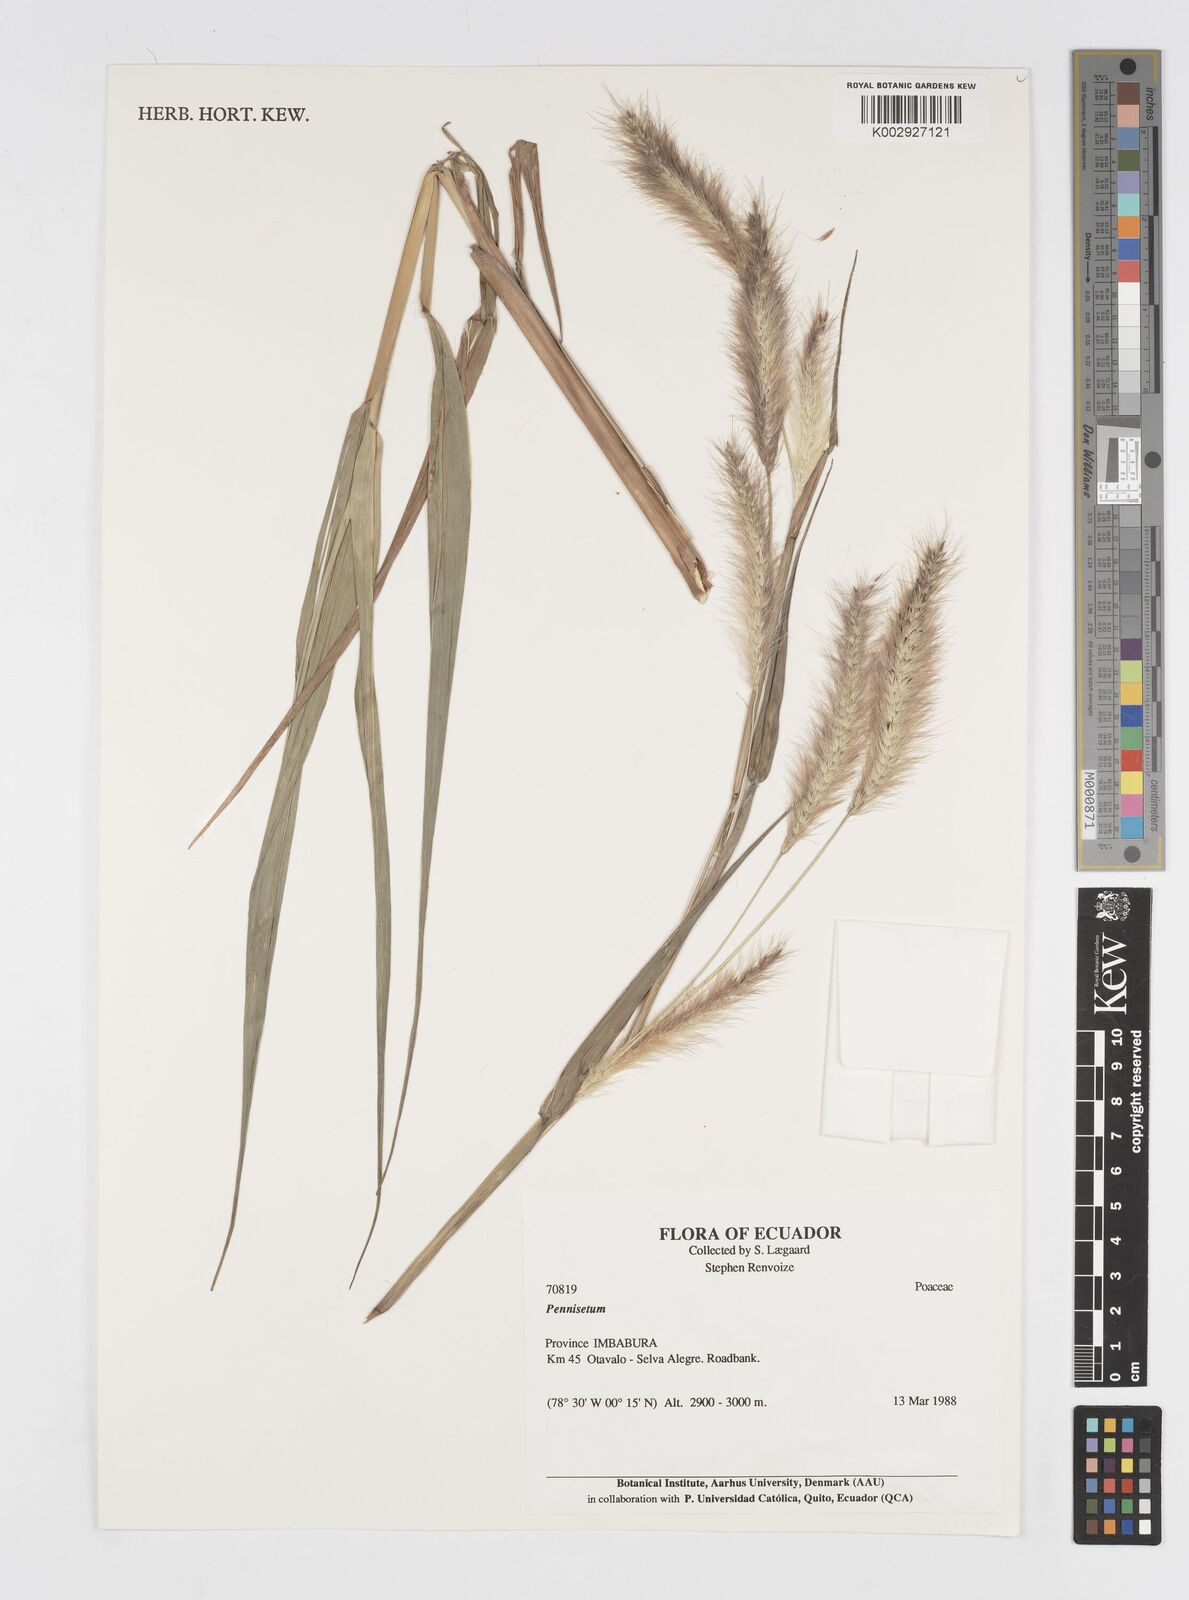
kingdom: Plantae
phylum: Tracheophyta
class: Liliopsida
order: Poales
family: Poaceae
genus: Cenchrus
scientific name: Cenchrus tristachyus
